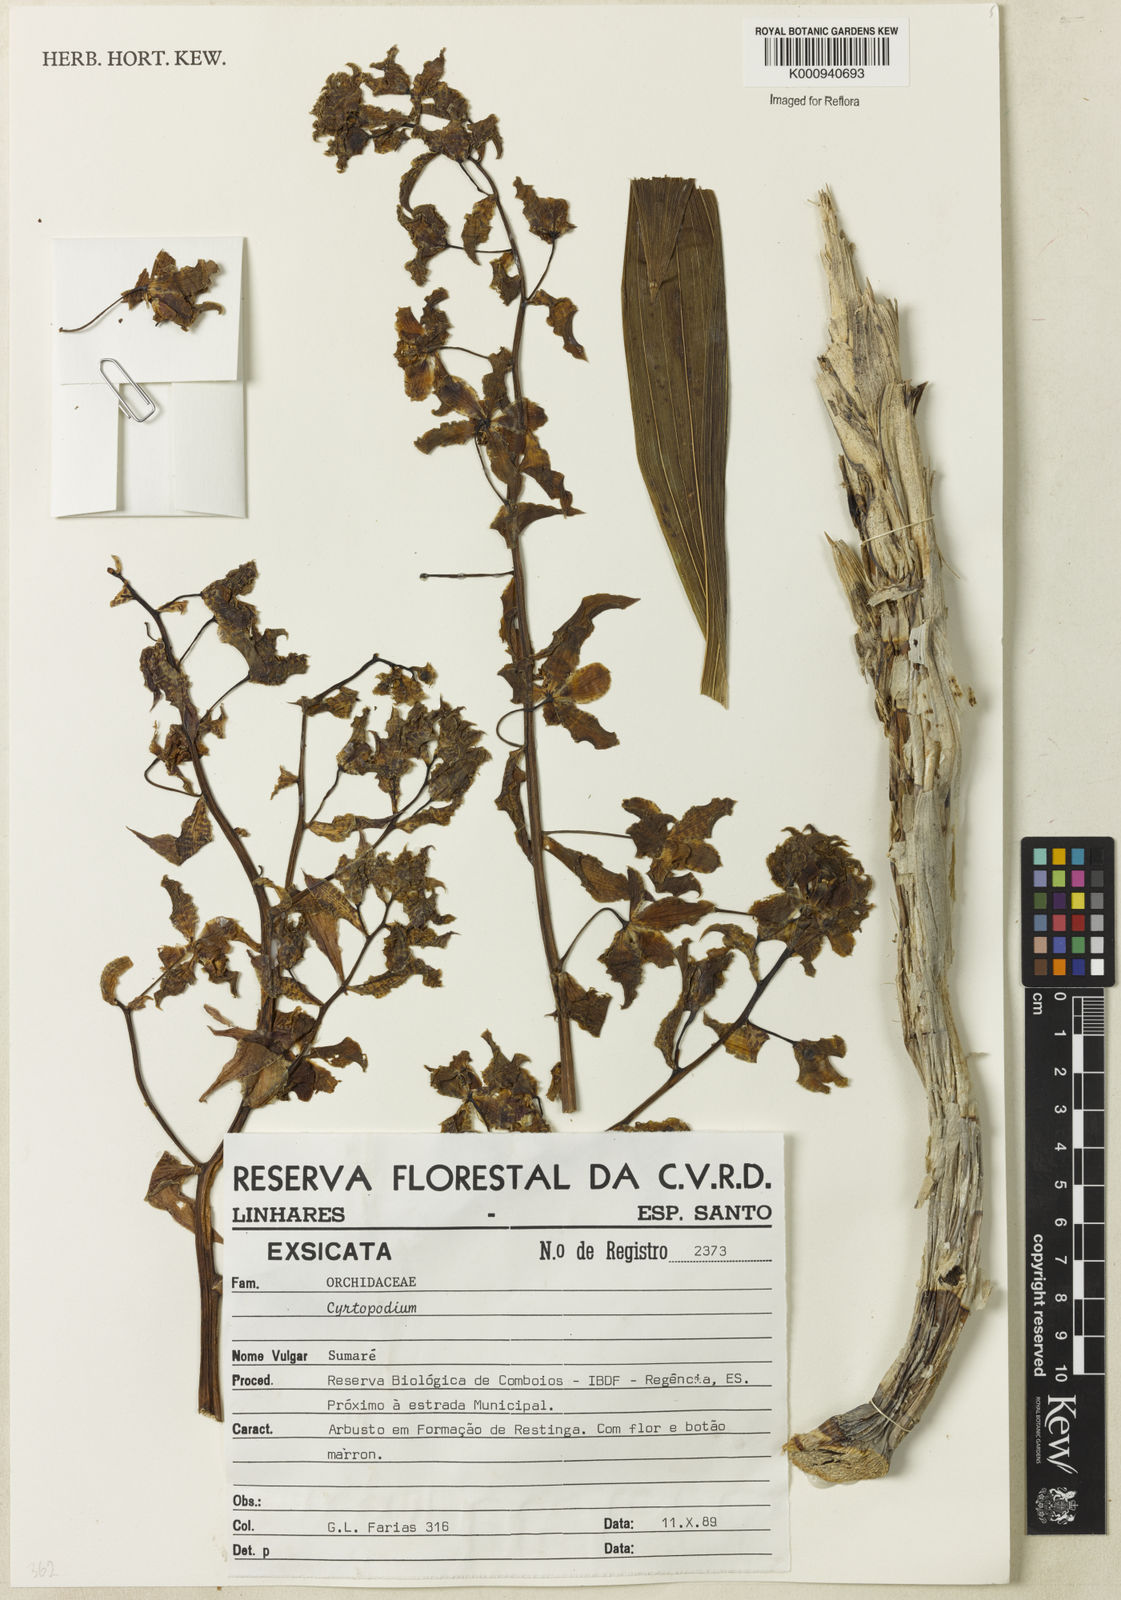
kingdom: Plantae
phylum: Tracheophyta
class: Liliopsida
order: Asparagales
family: Orchidaceae
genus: Cyrtopodium
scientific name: Cyrtopodium
